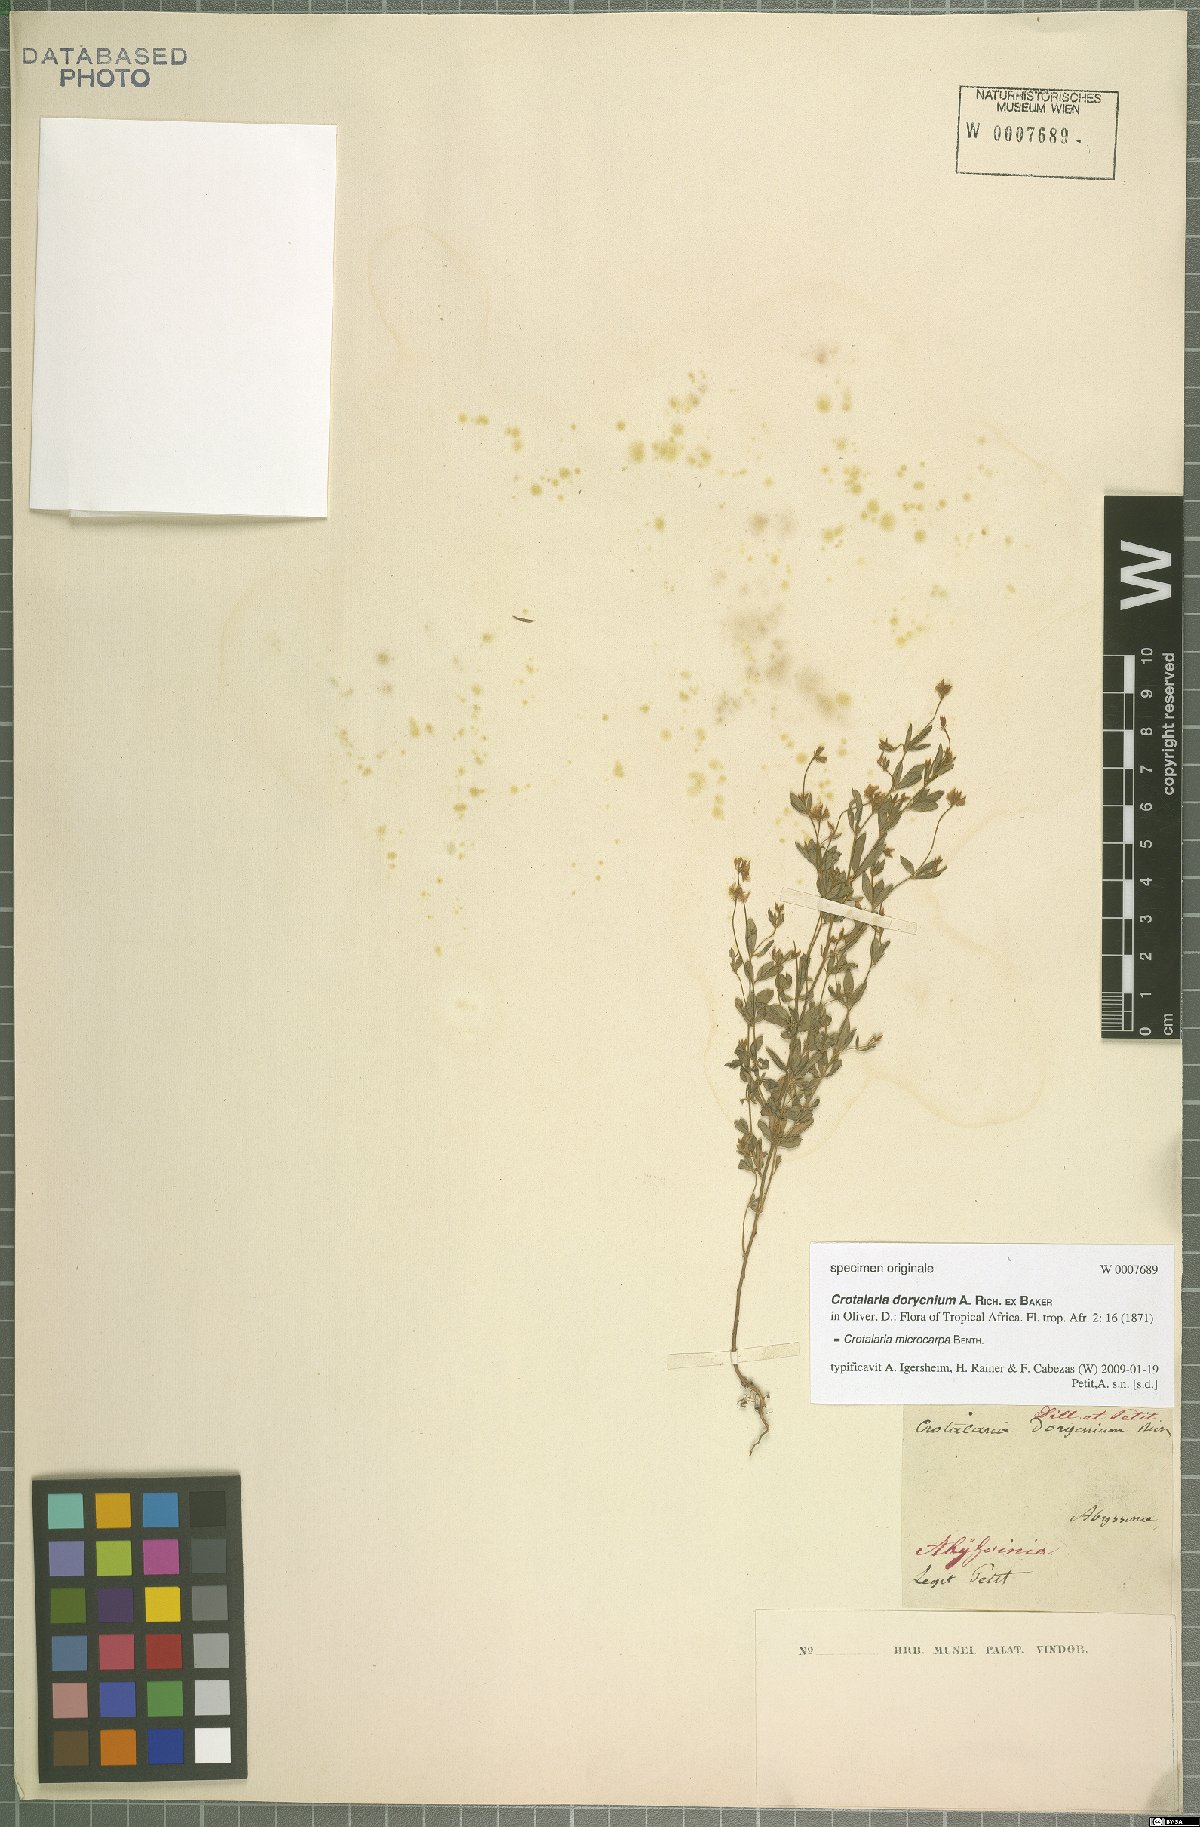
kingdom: Plantae
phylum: Tracheophyta
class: Magnoliopsida
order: Fabales
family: Fabaceae
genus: Crotalaria
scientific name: Crotalaria microcarpa
